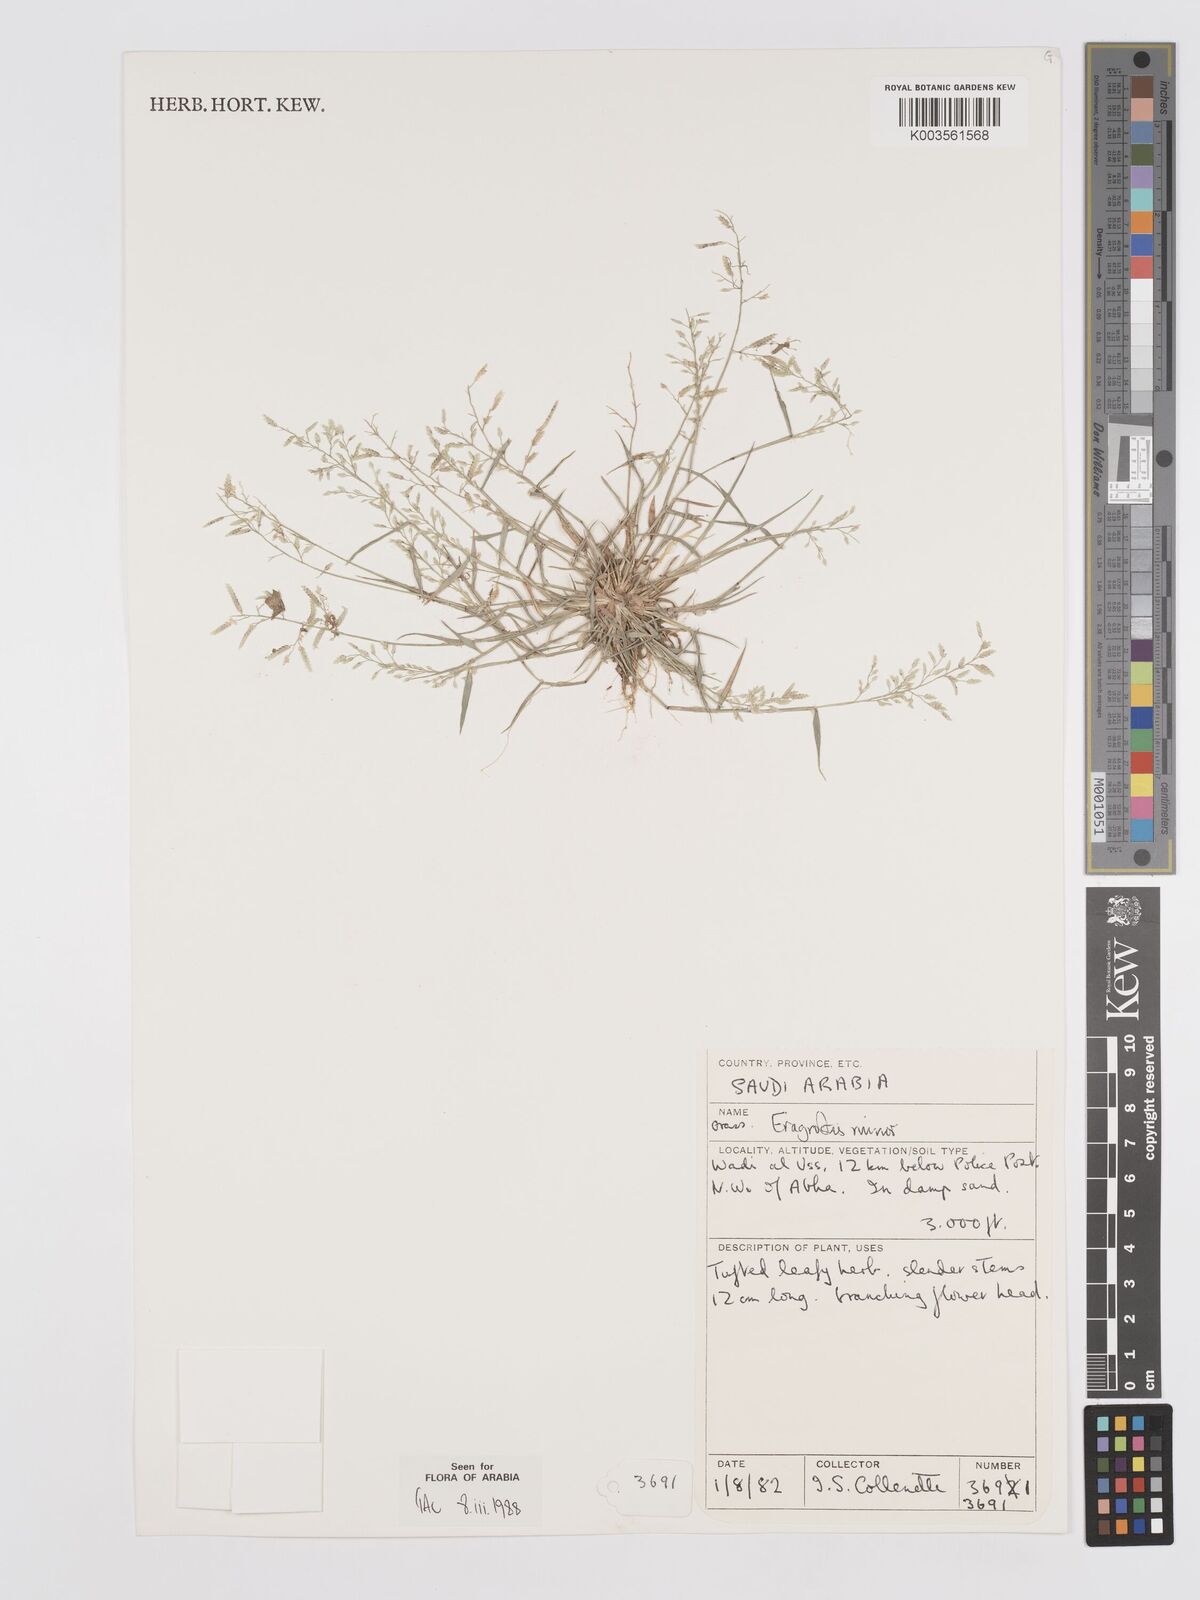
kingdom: Plantae
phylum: Tracheophyta
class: Liliopsida
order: Poales
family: Poaceae
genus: Eragrostis
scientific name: Eragrostis minor
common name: Small love-grass
